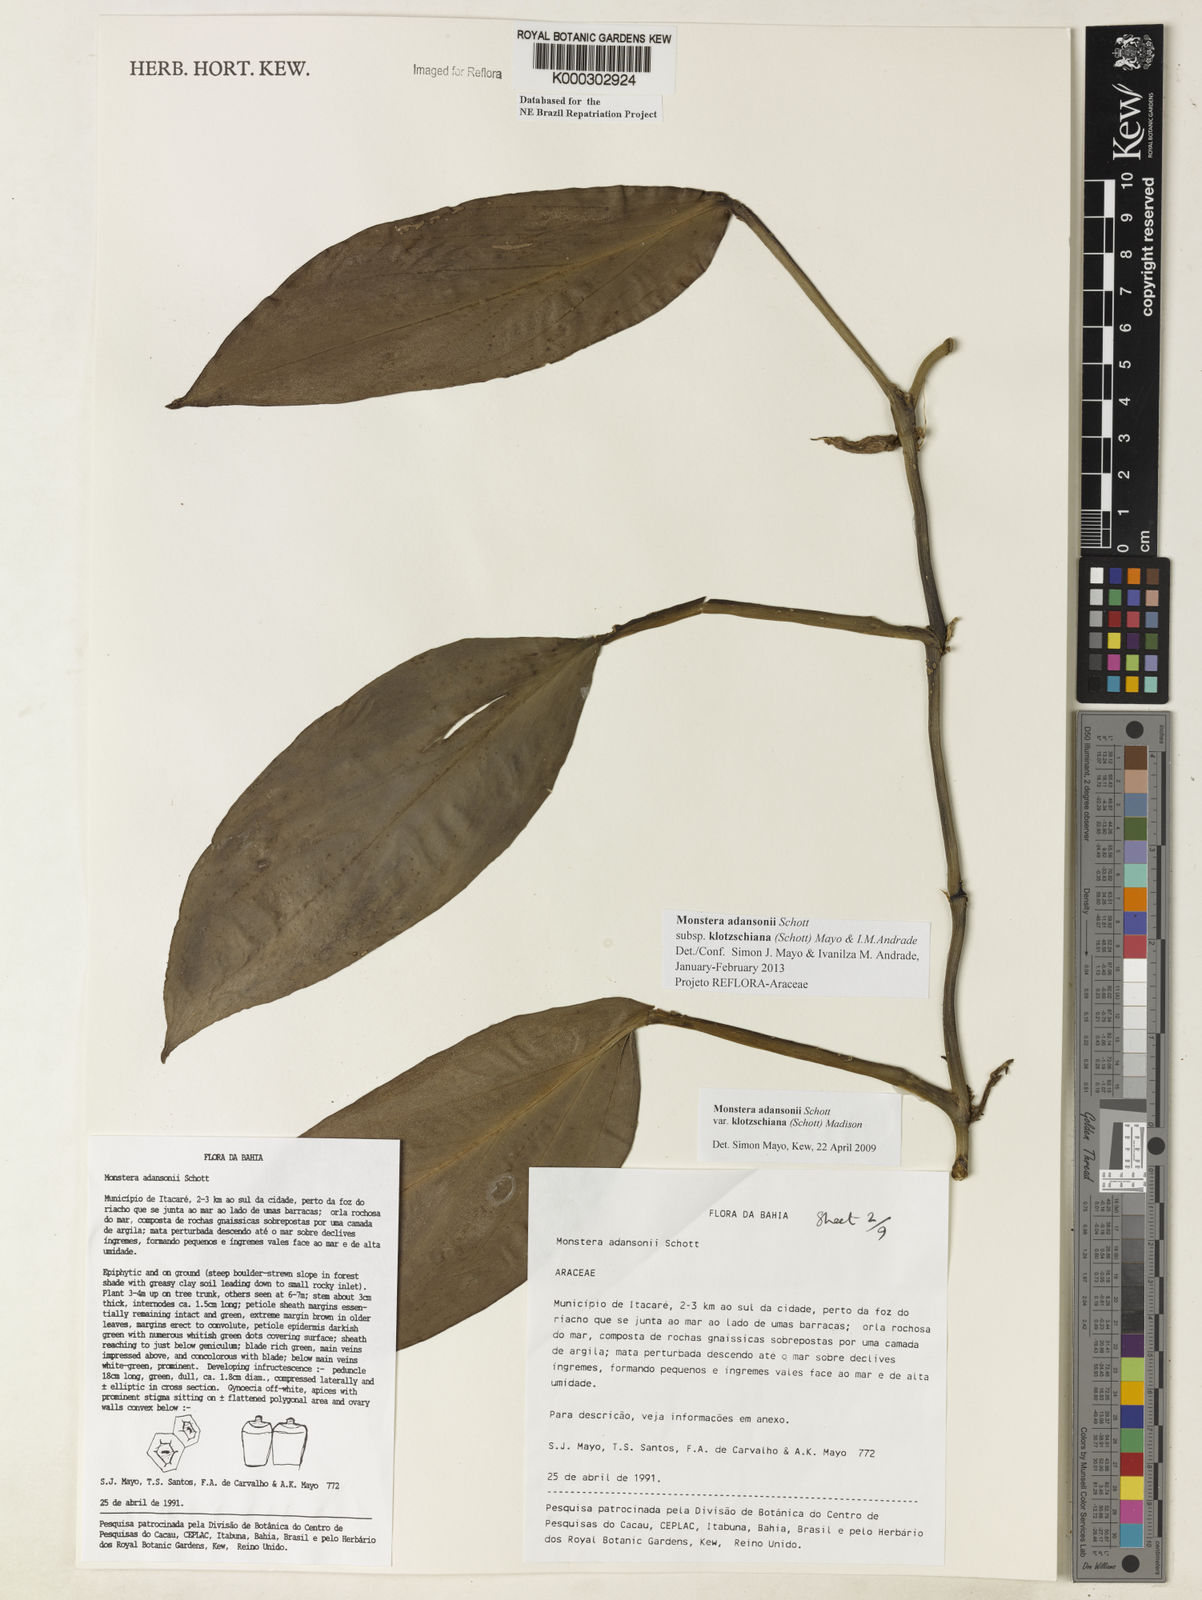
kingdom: Plantae
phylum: Tracheophyta
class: Liliopsida
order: Alismatales
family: Araceae
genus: Monstera
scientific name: Monstera adansonii
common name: Tarovine
